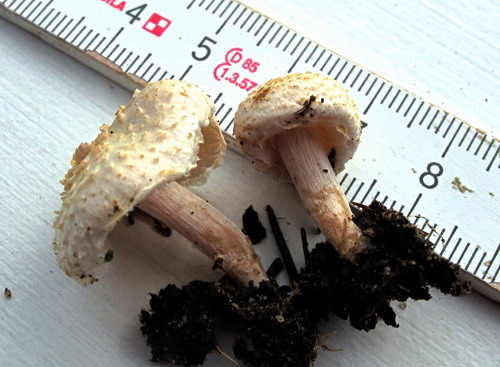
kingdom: Fungi
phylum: Basidiomycota
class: Agaricomycetes
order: Agaricales
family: Agaricaceae
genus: Lepiota
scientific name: Lepiota cristata
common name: stinkende parasolhat
